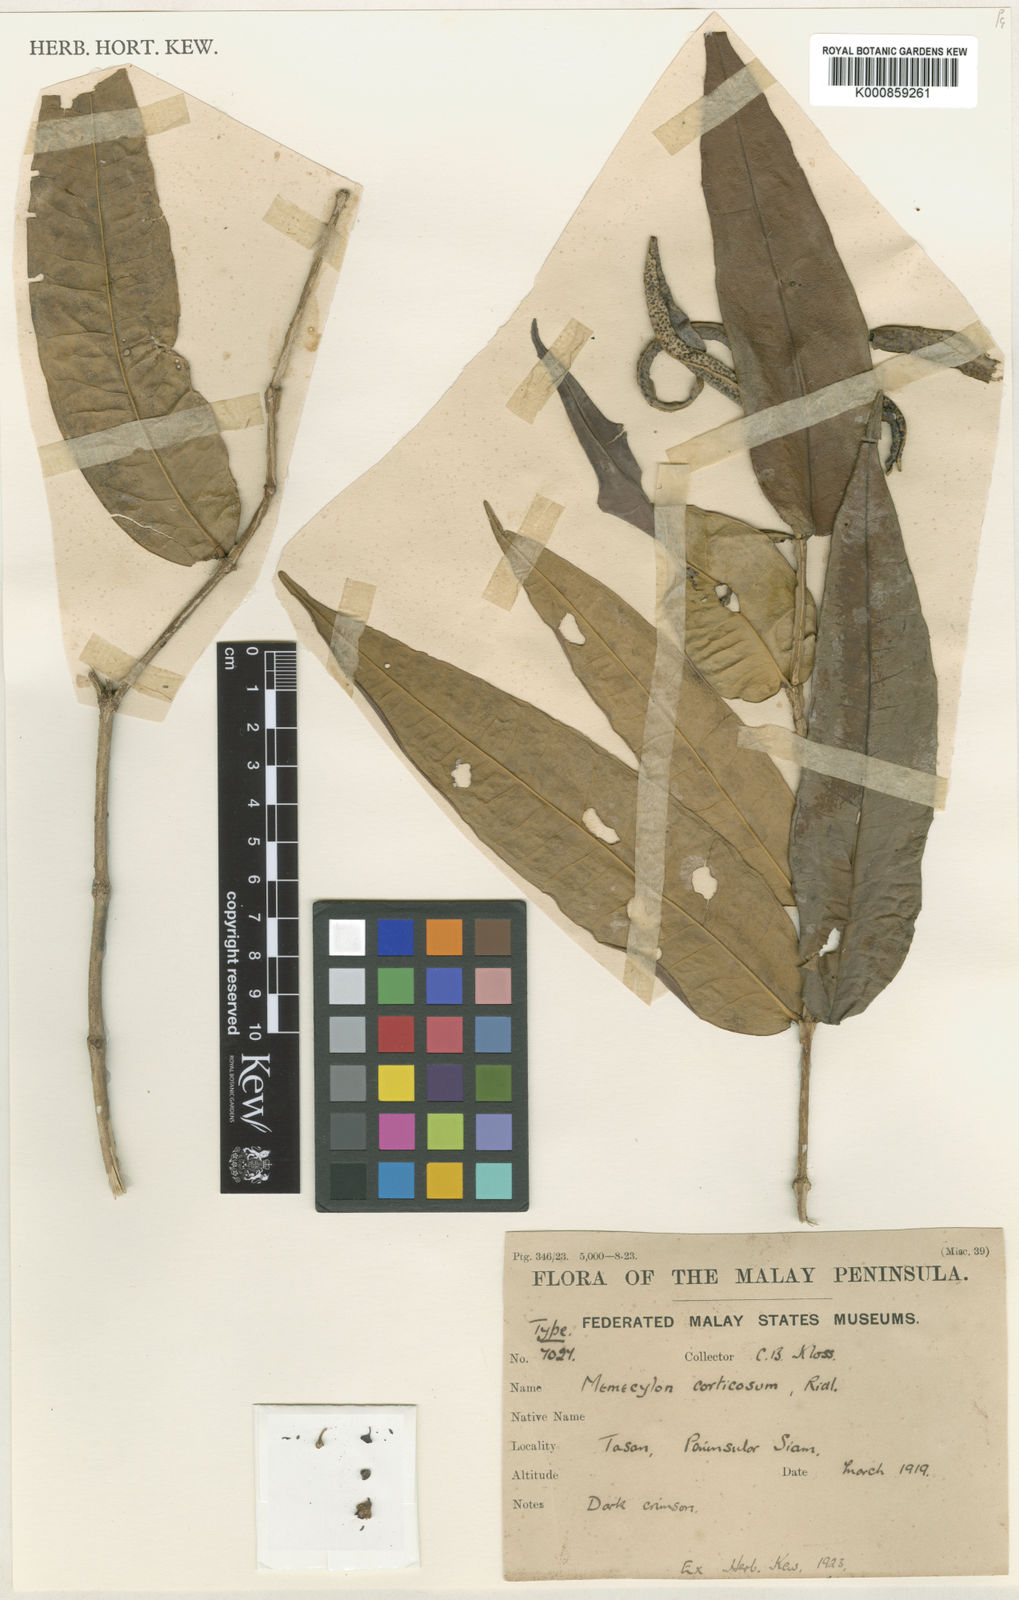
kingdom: Plantae
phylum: Tracheophyta
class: Magnoliopsida
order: Myrtales
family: Melastomataceae
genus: Memecylon
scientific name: Memecylon corticosum
